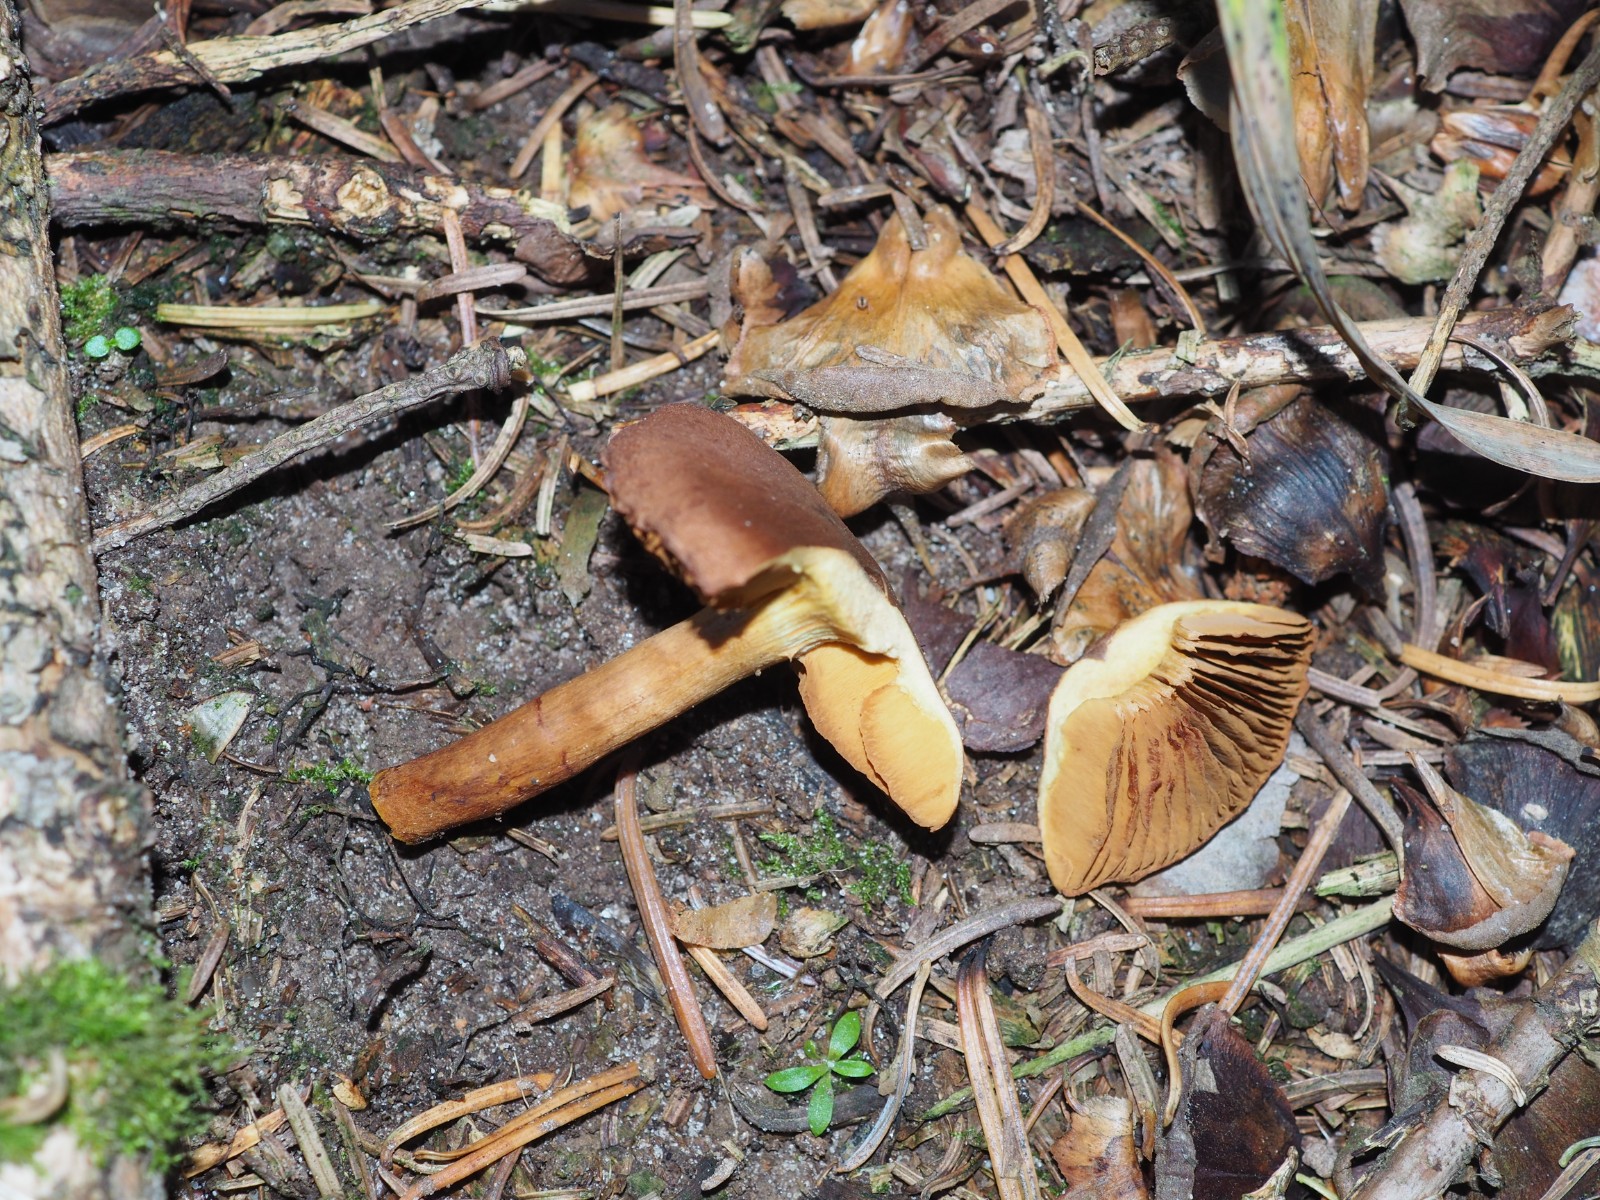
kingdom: Fungi
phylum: Basidiomycota
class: Agaricomycetes
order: Agaricales
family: Cortinariaceae
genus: Cortinarius
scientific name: Cortinarius
